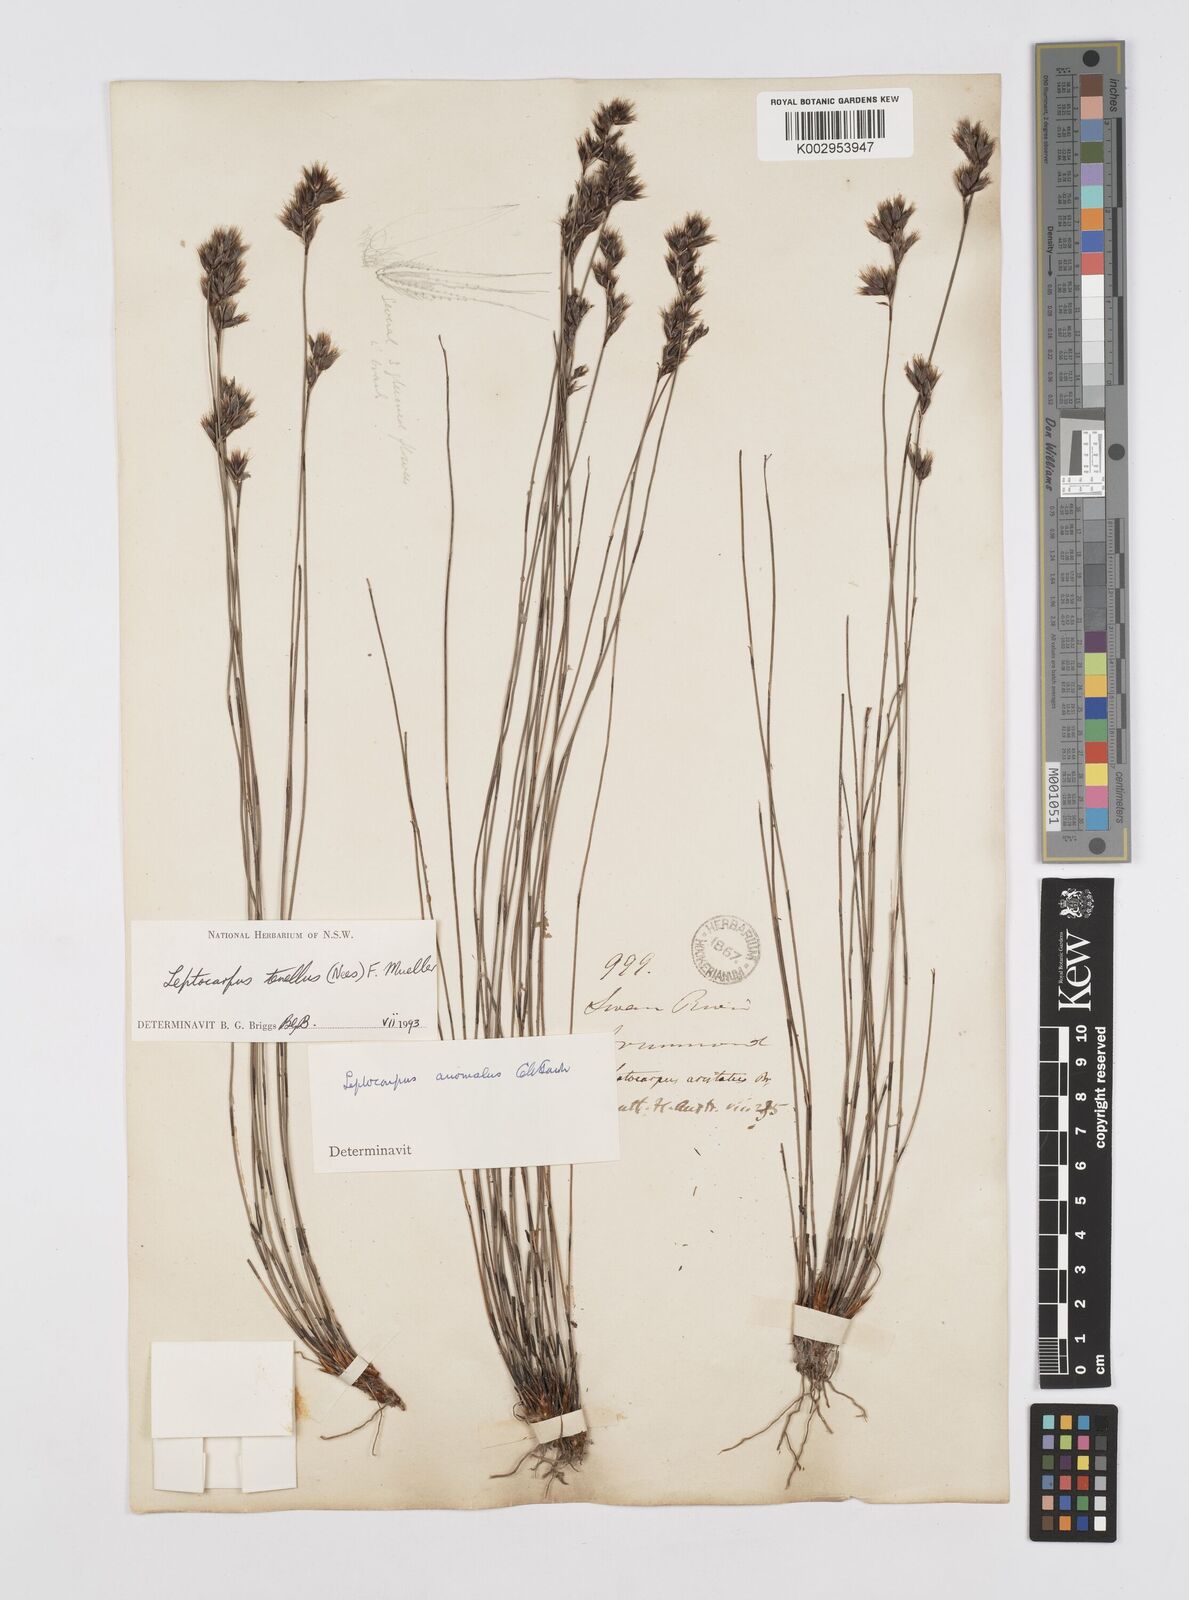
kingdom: Plantae
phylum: Tracheophyta
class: Liliopsida
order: Poales
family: Restionaceae
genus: Chaetanthus
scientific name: Chaetanthus tenellus
